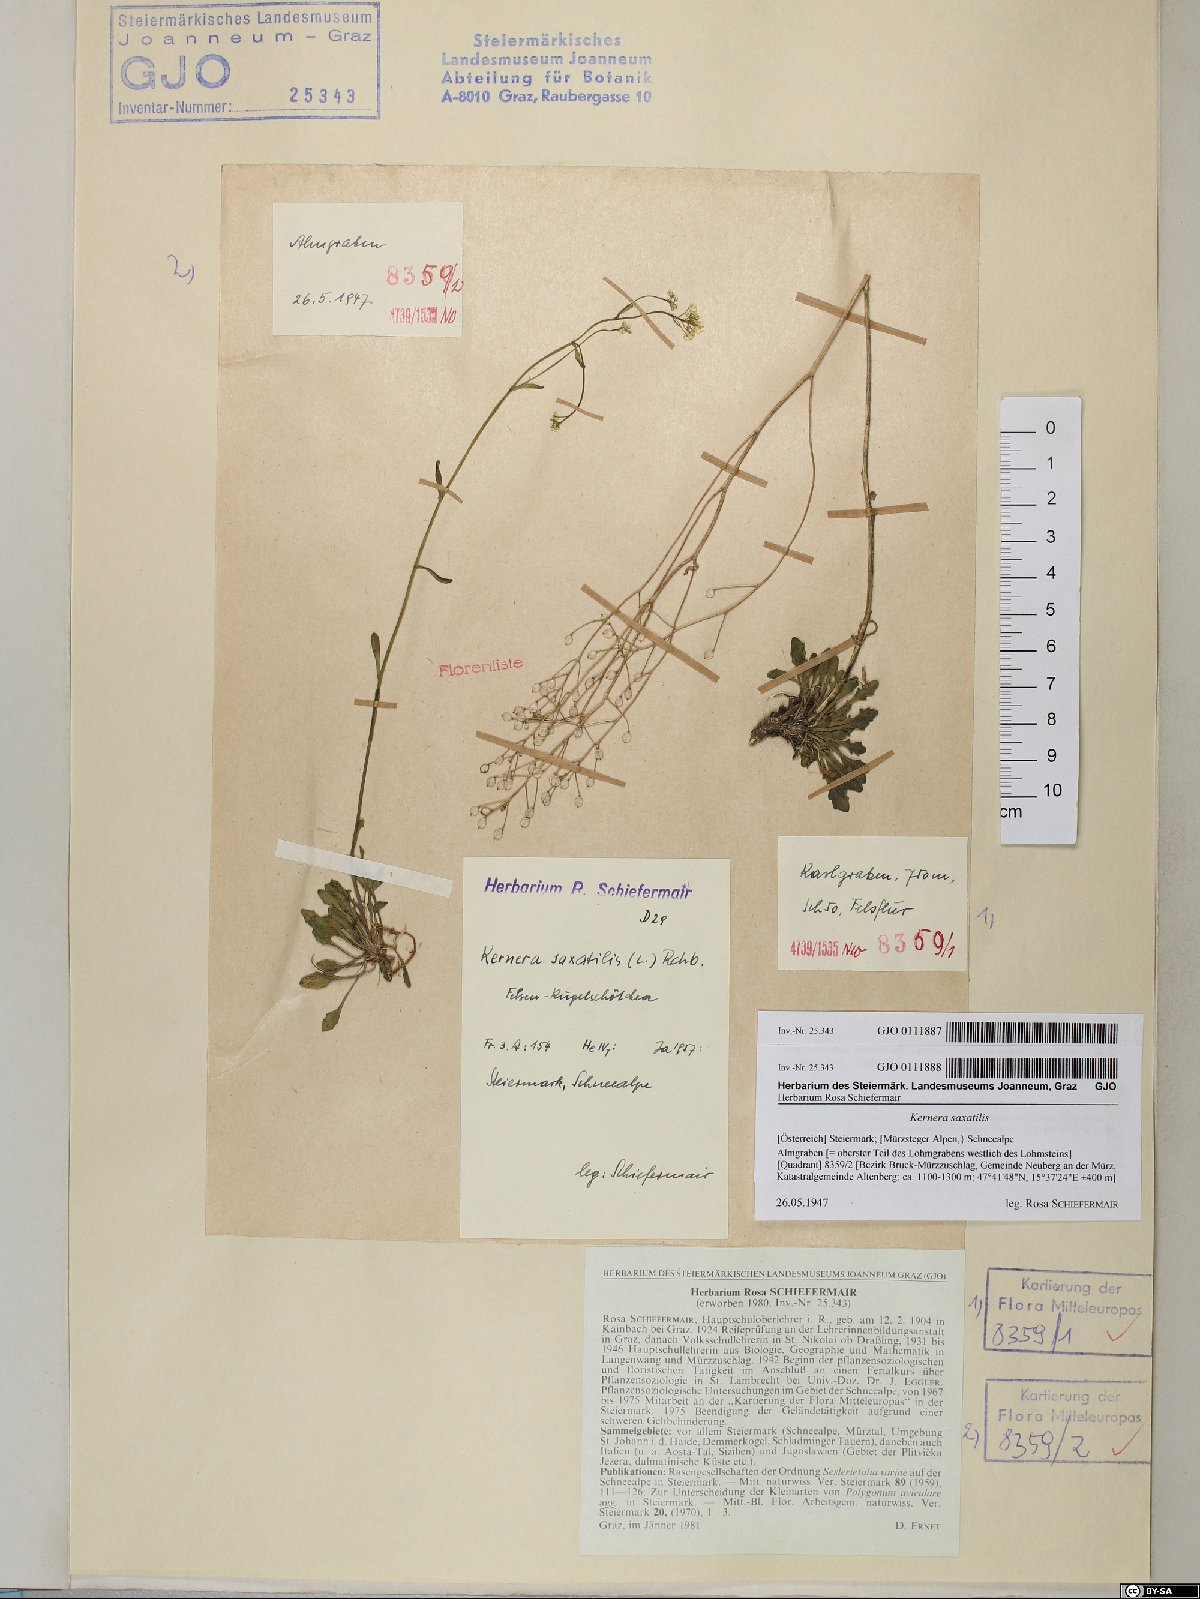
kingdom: Plantae
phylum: Tracheophyta
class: Magnoliopsida
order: Brassicales
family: Brassicaceae
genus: Kernera
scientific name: Kernera saxatilis
